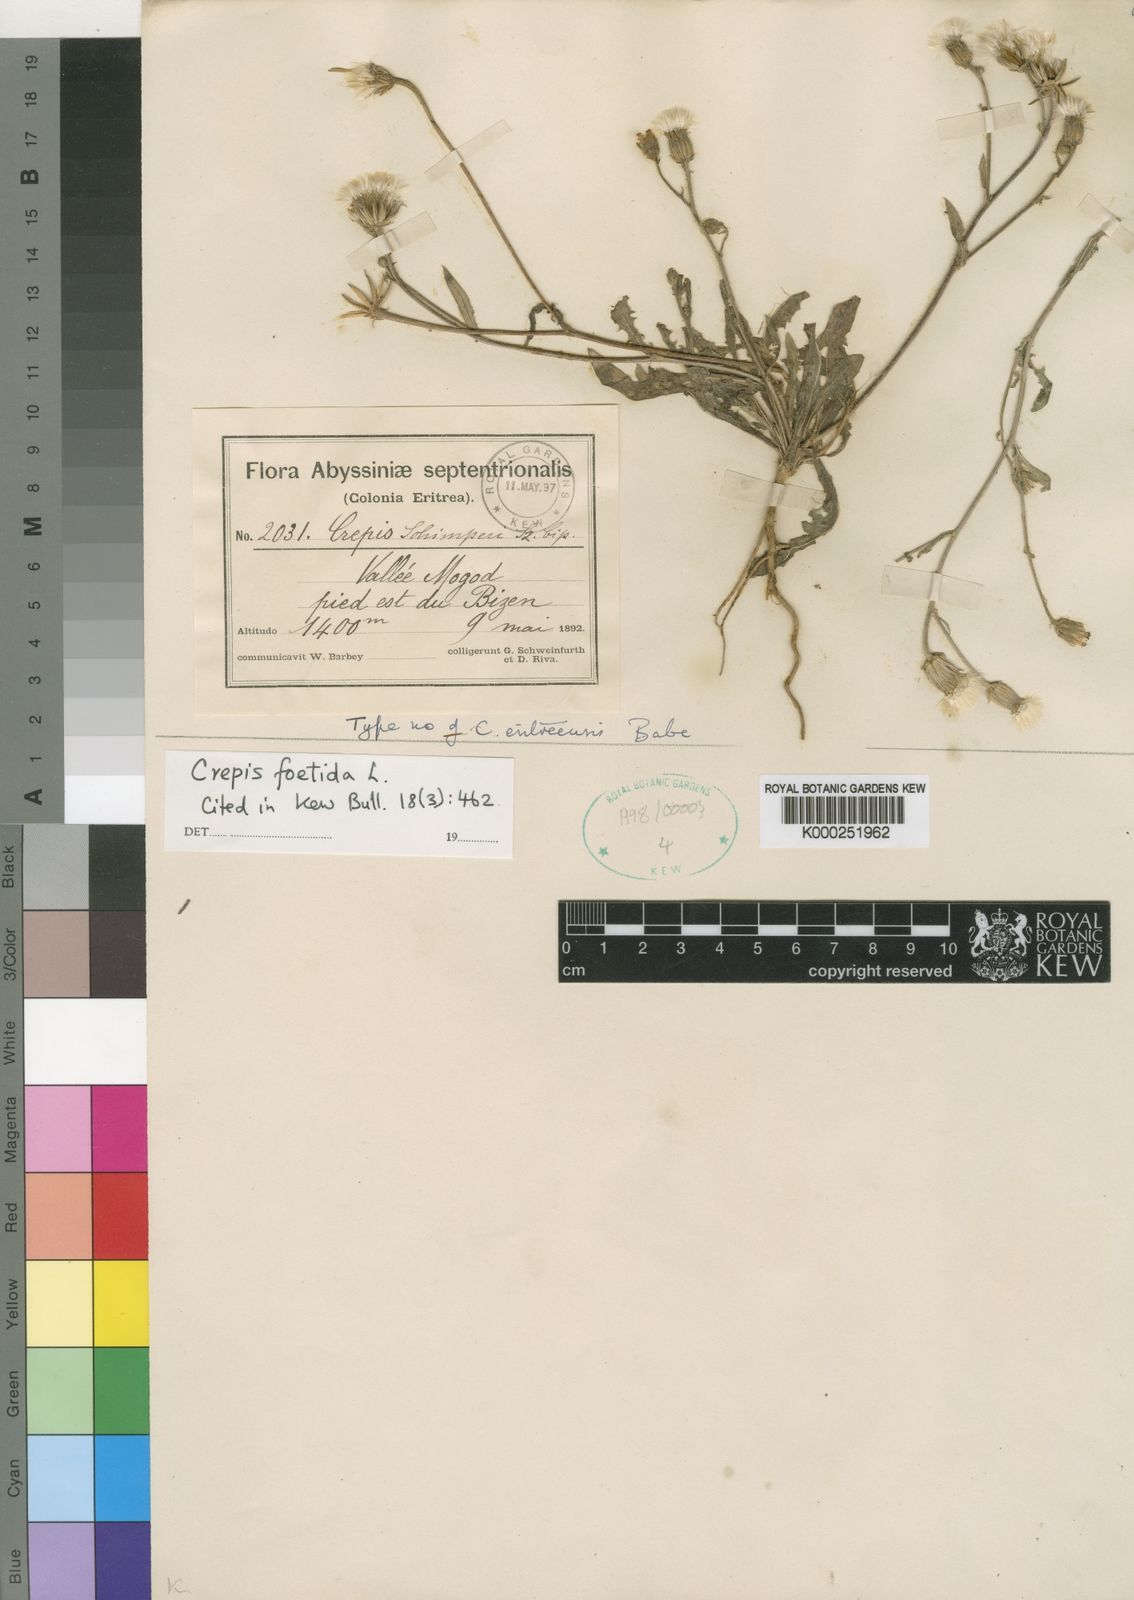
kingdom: Plantae
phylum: Tracheophyta
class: Magnoliopsida
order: Asterales
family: Asteraceae
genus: Crepis
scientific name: Crepis foetida
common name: Stinking hawk's-beard
